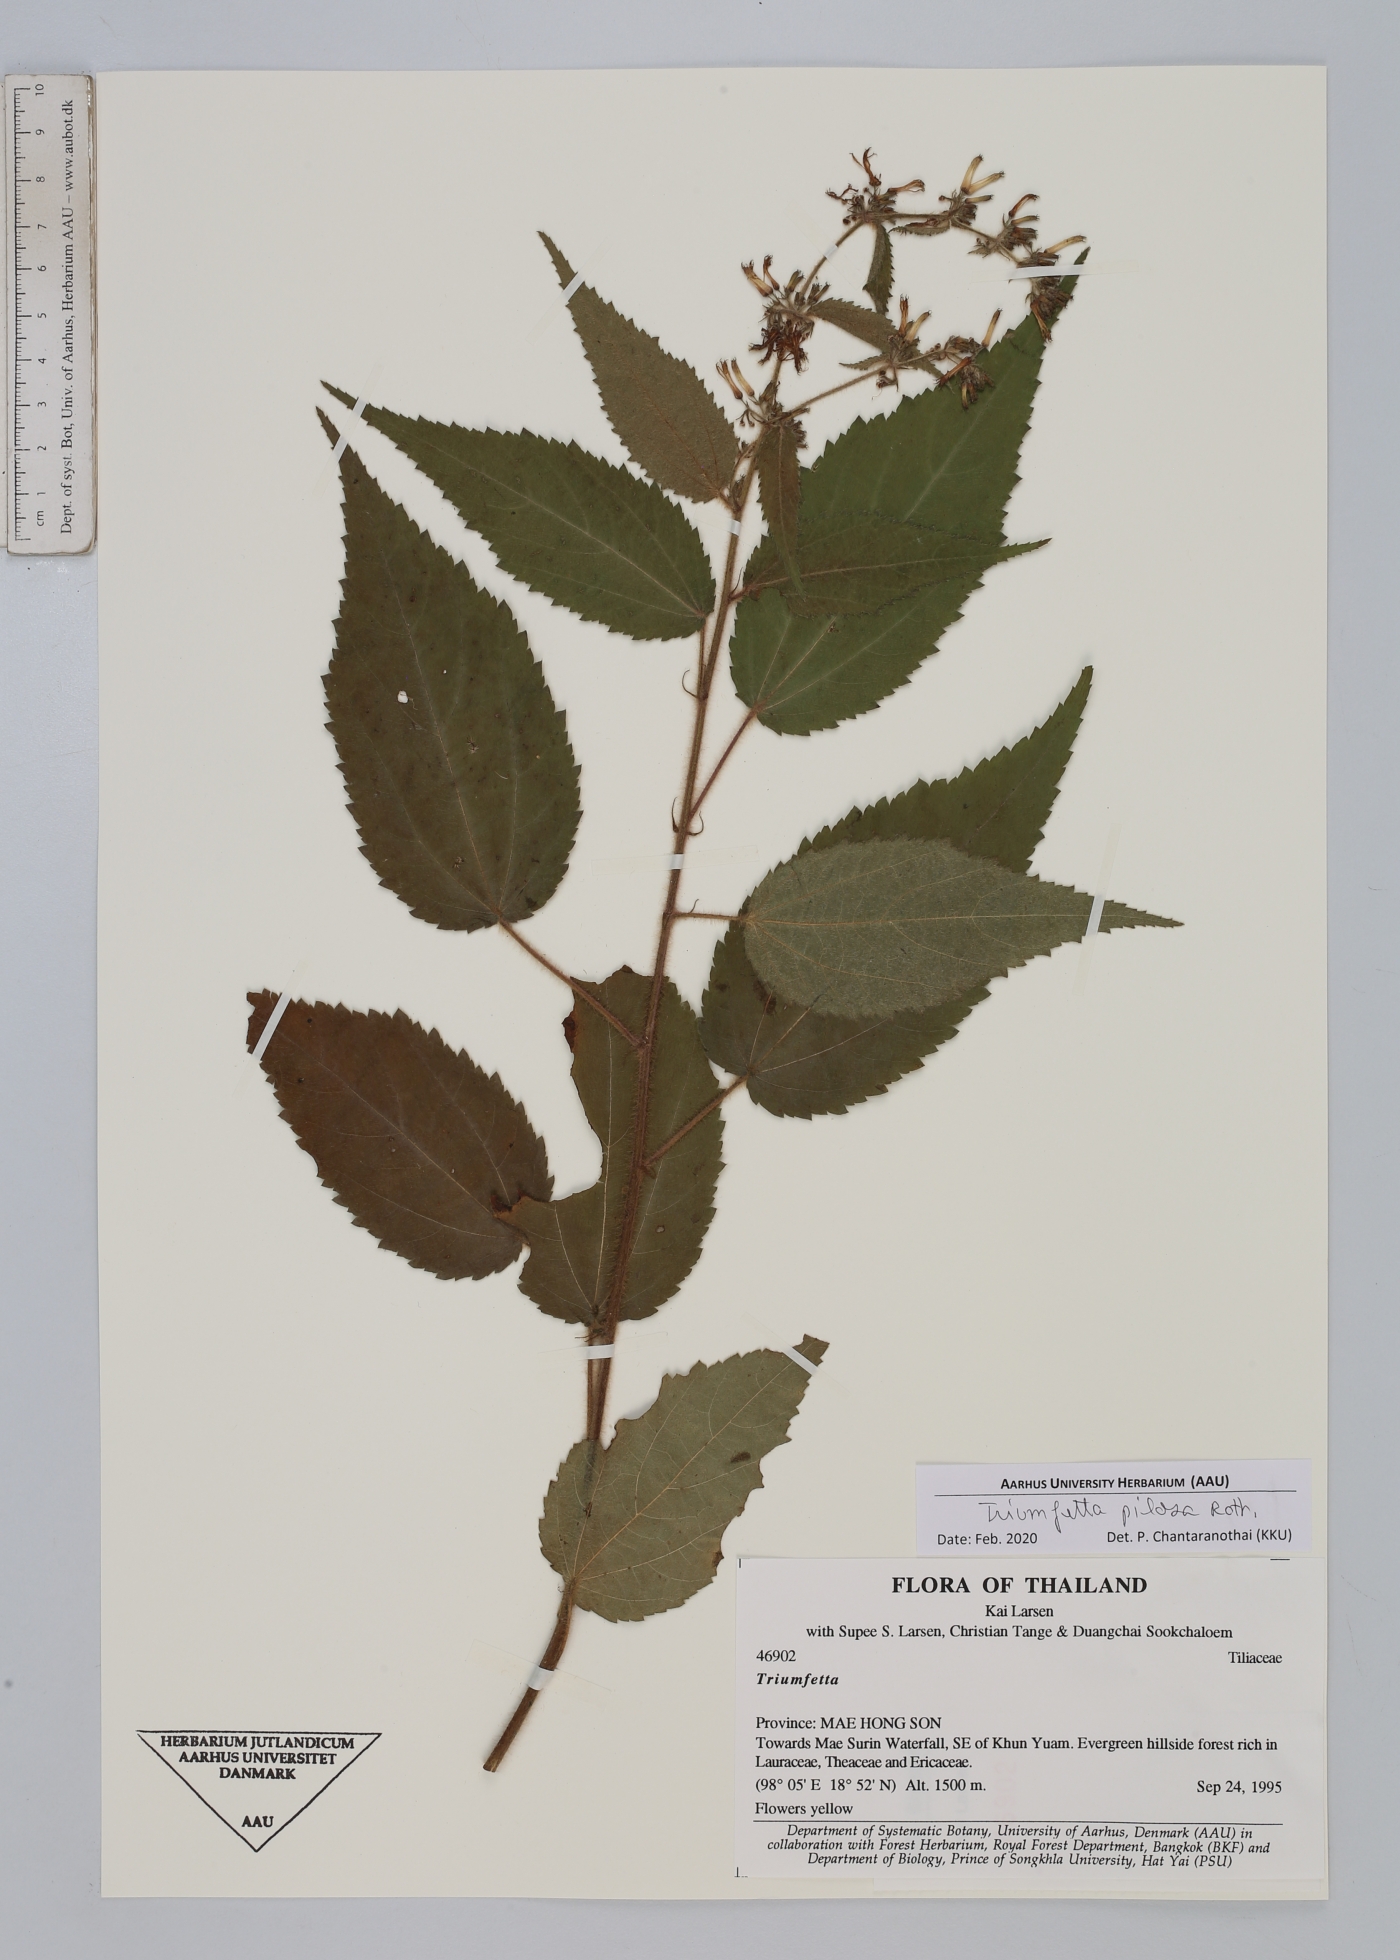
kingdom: Plantae
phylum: Tracheophyta
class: Magnoliopsida
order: Malvales
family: Malvaceae
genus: Triumfetta
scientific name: Triumfetta pilosa
